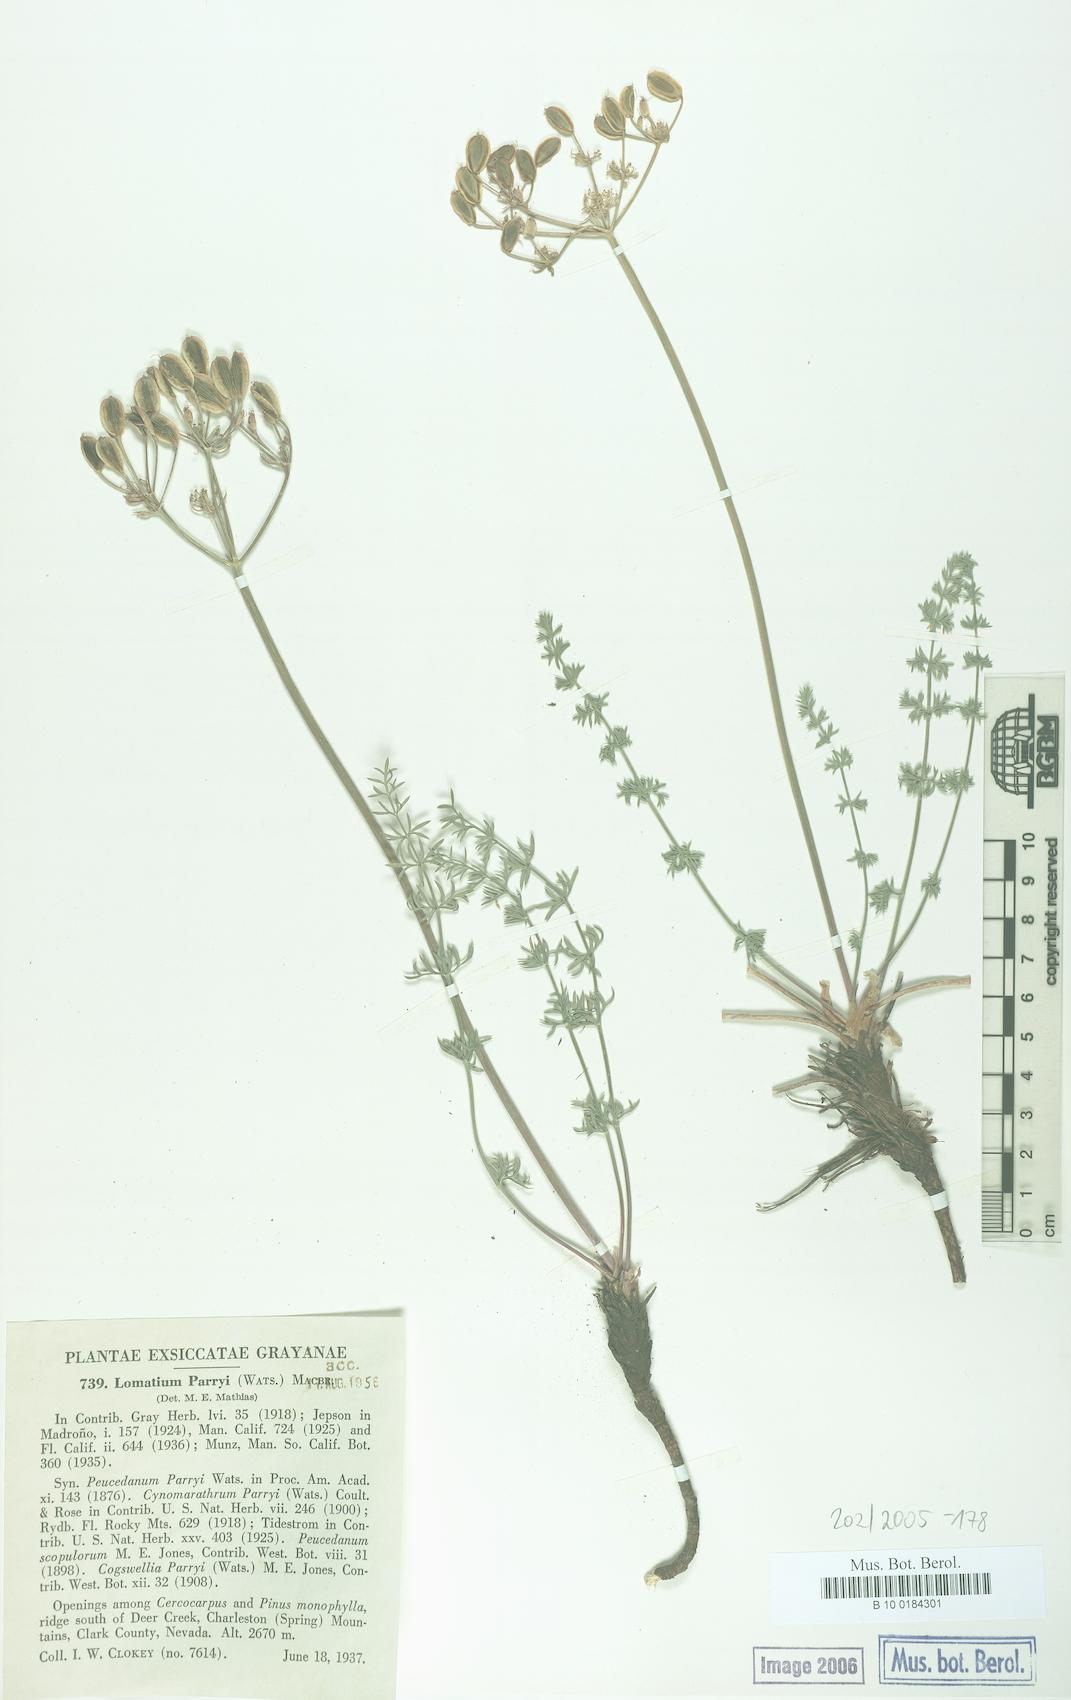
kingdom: Plantae
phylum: Tracheophyta
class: Magnoliopsida
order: Apiales
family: Apiaceae
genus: Lomatium
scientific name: Lomatium parryi
